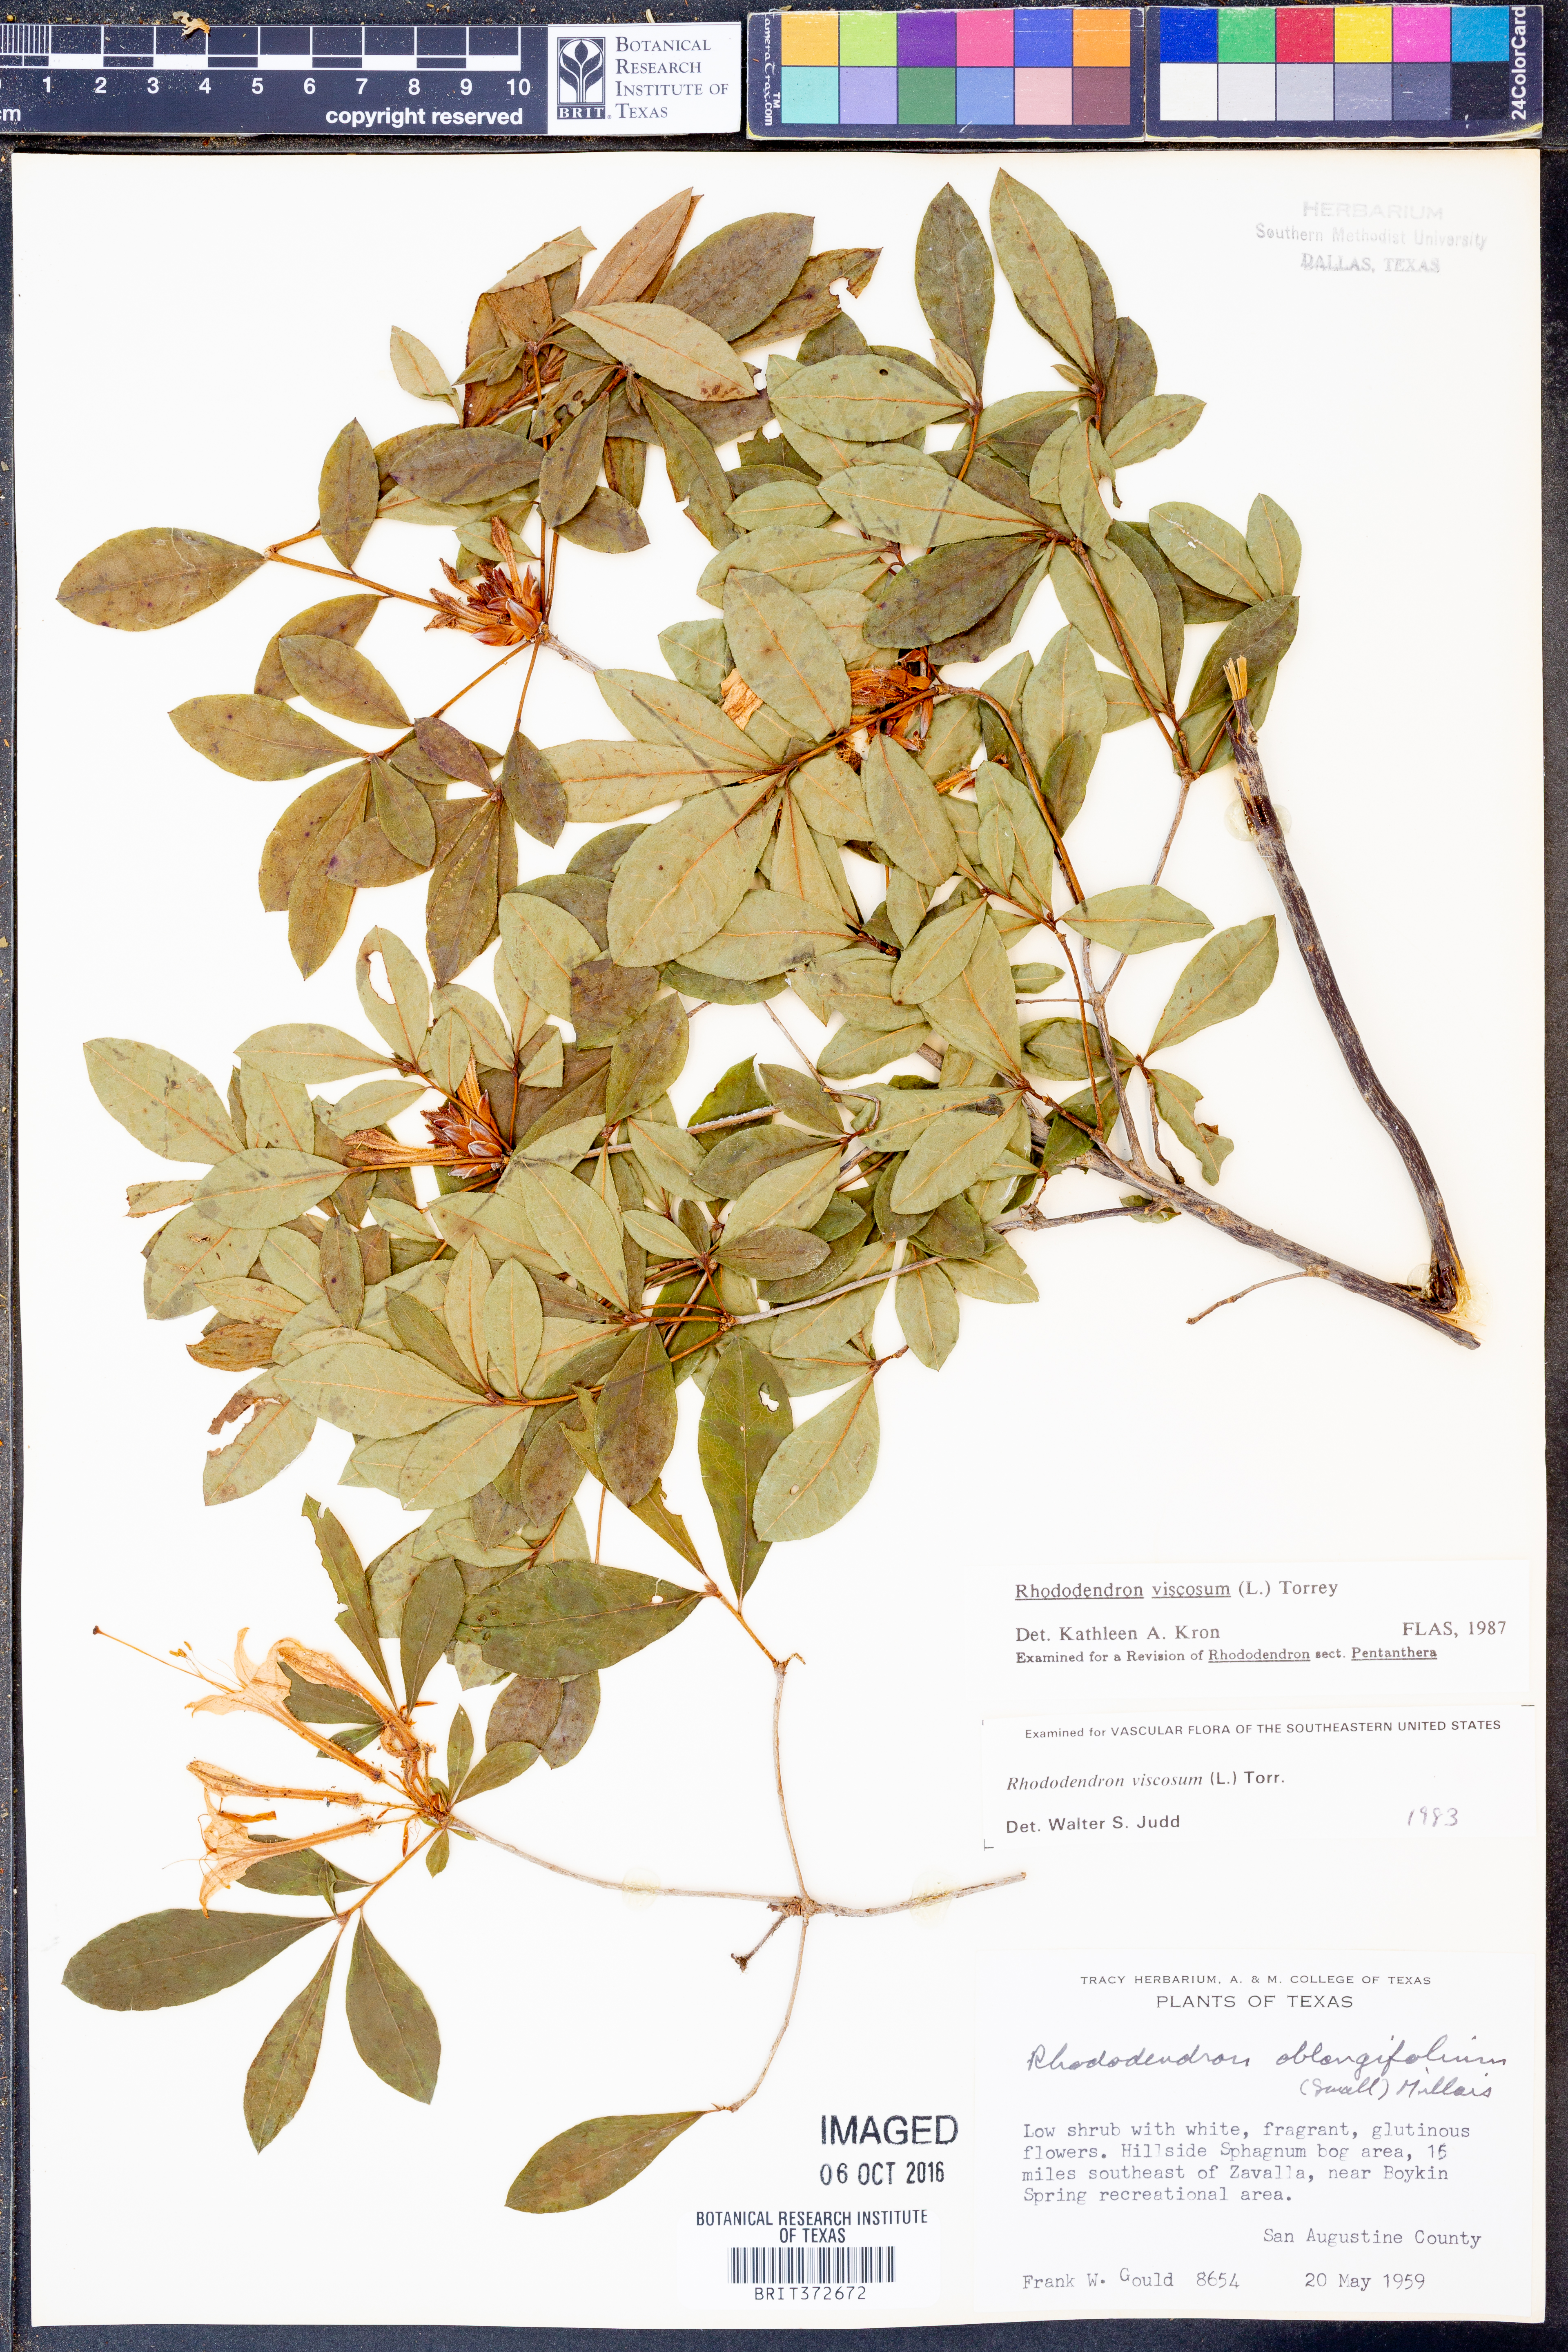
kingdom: Plantae
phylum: Tracheophyta
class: Magnoliopsida
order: Ericales
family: Ericaceae
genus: Rhododendron
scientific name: Rhododendron viscosum
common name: Clammy azalea
